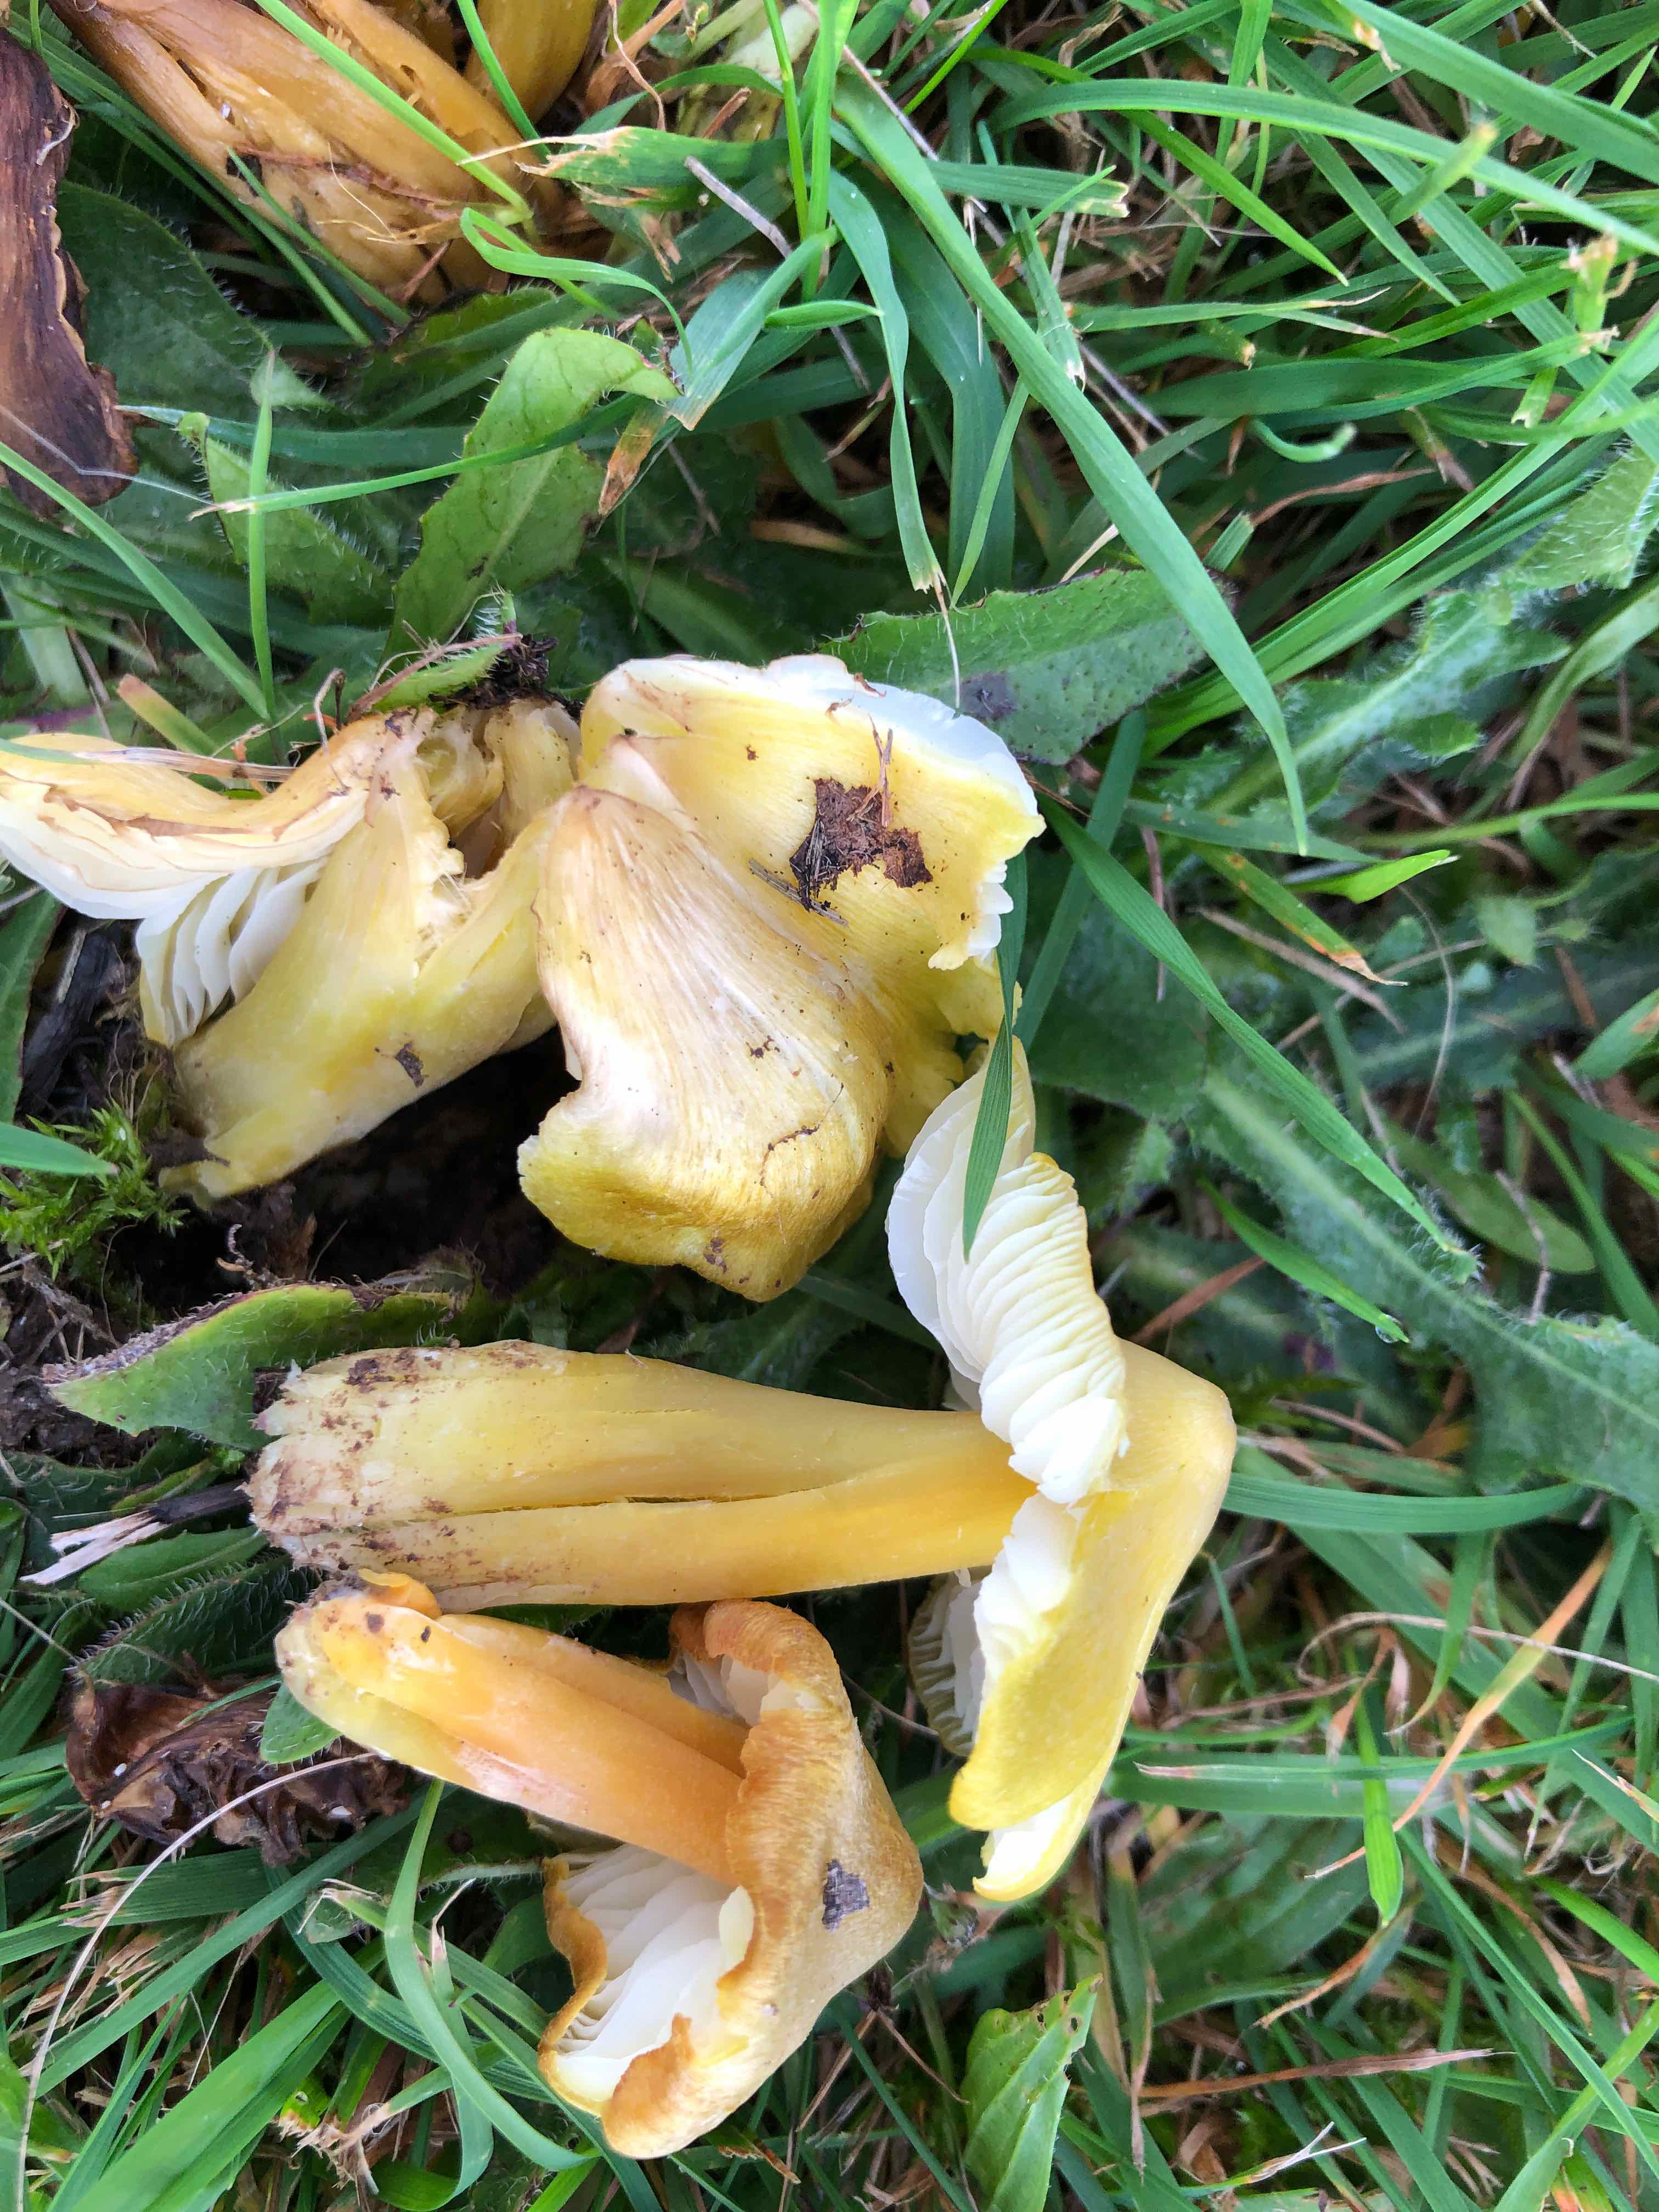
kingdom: Fungi
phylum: Basidiomycota
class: Agaricomycetes
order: Agaricales
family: Hygrophoraceae
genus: Hygrocybe
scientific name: Hygrocybe citrinovirens
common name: grøngul vokshat
